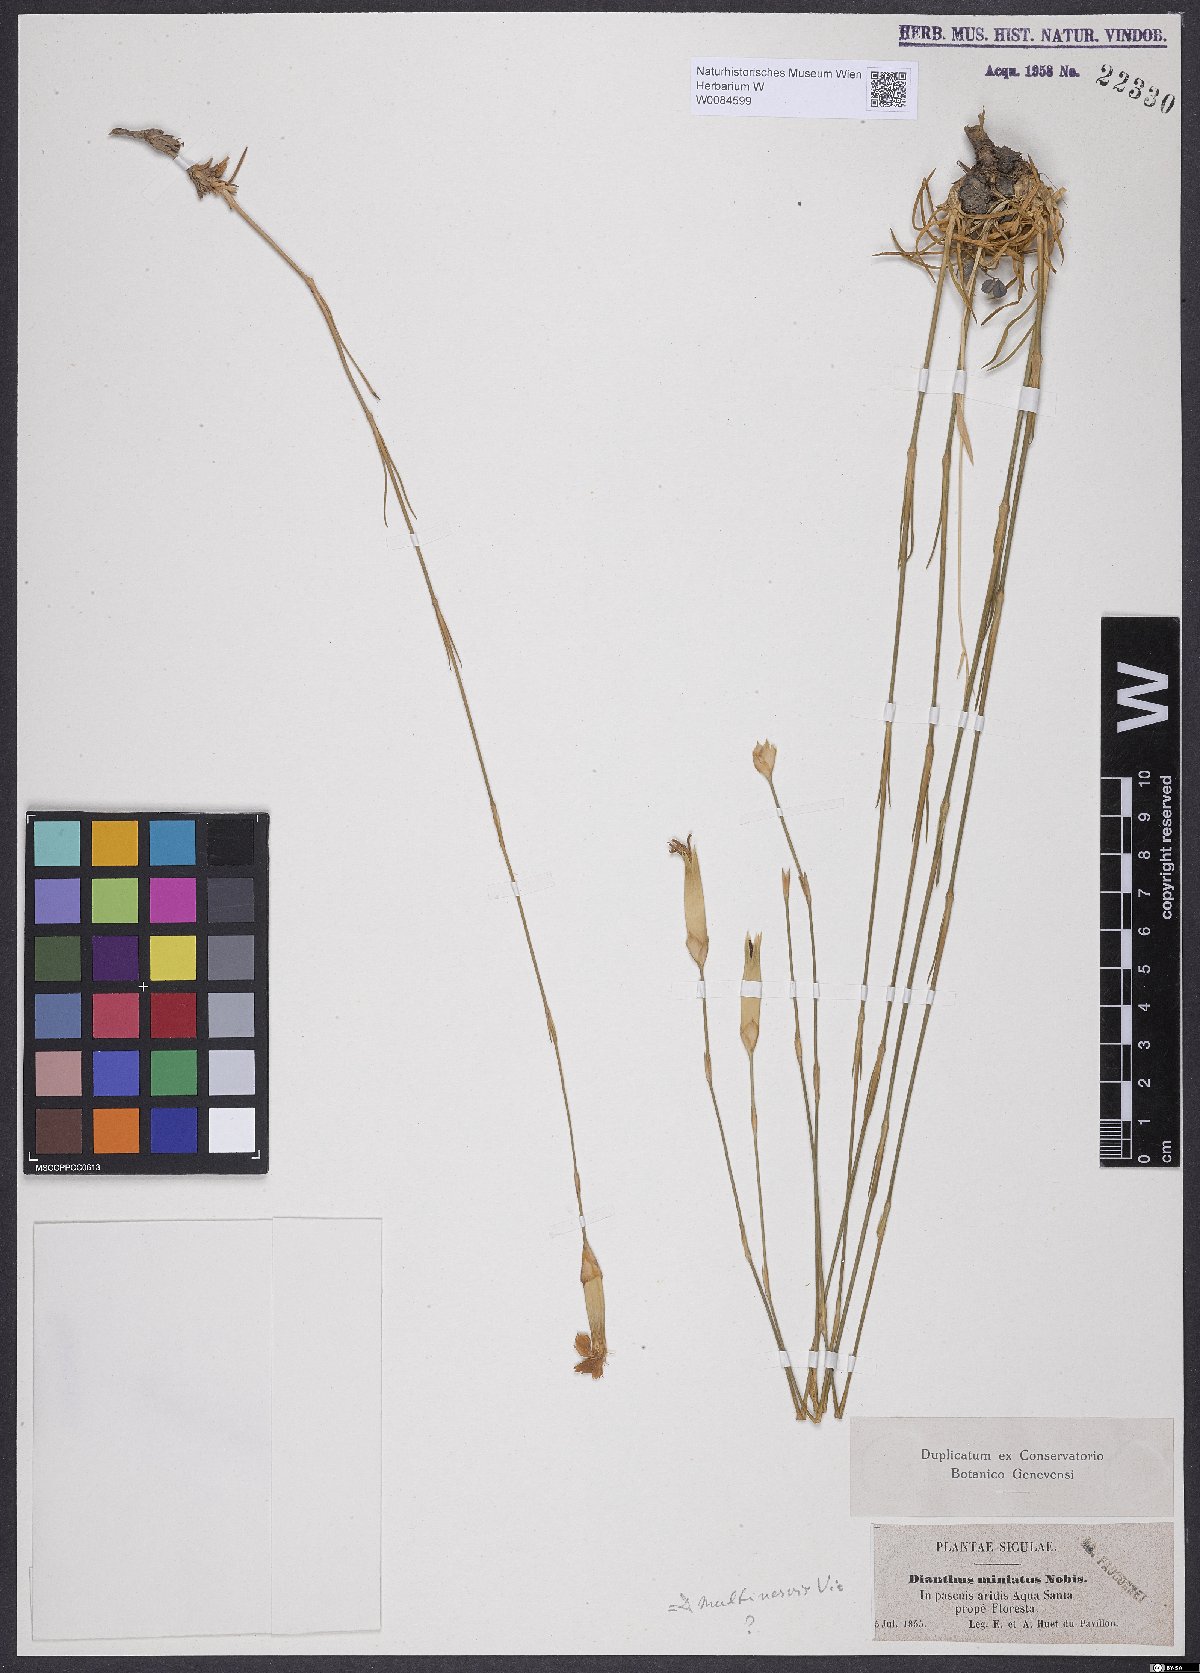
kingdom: Plantae
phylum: Tracheophyta
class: Magnoliopsida
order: Caryophyllales
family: Caryophyllaceae
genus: Dianthus
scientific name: Dianthus caryophyllus
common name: Clove pink
